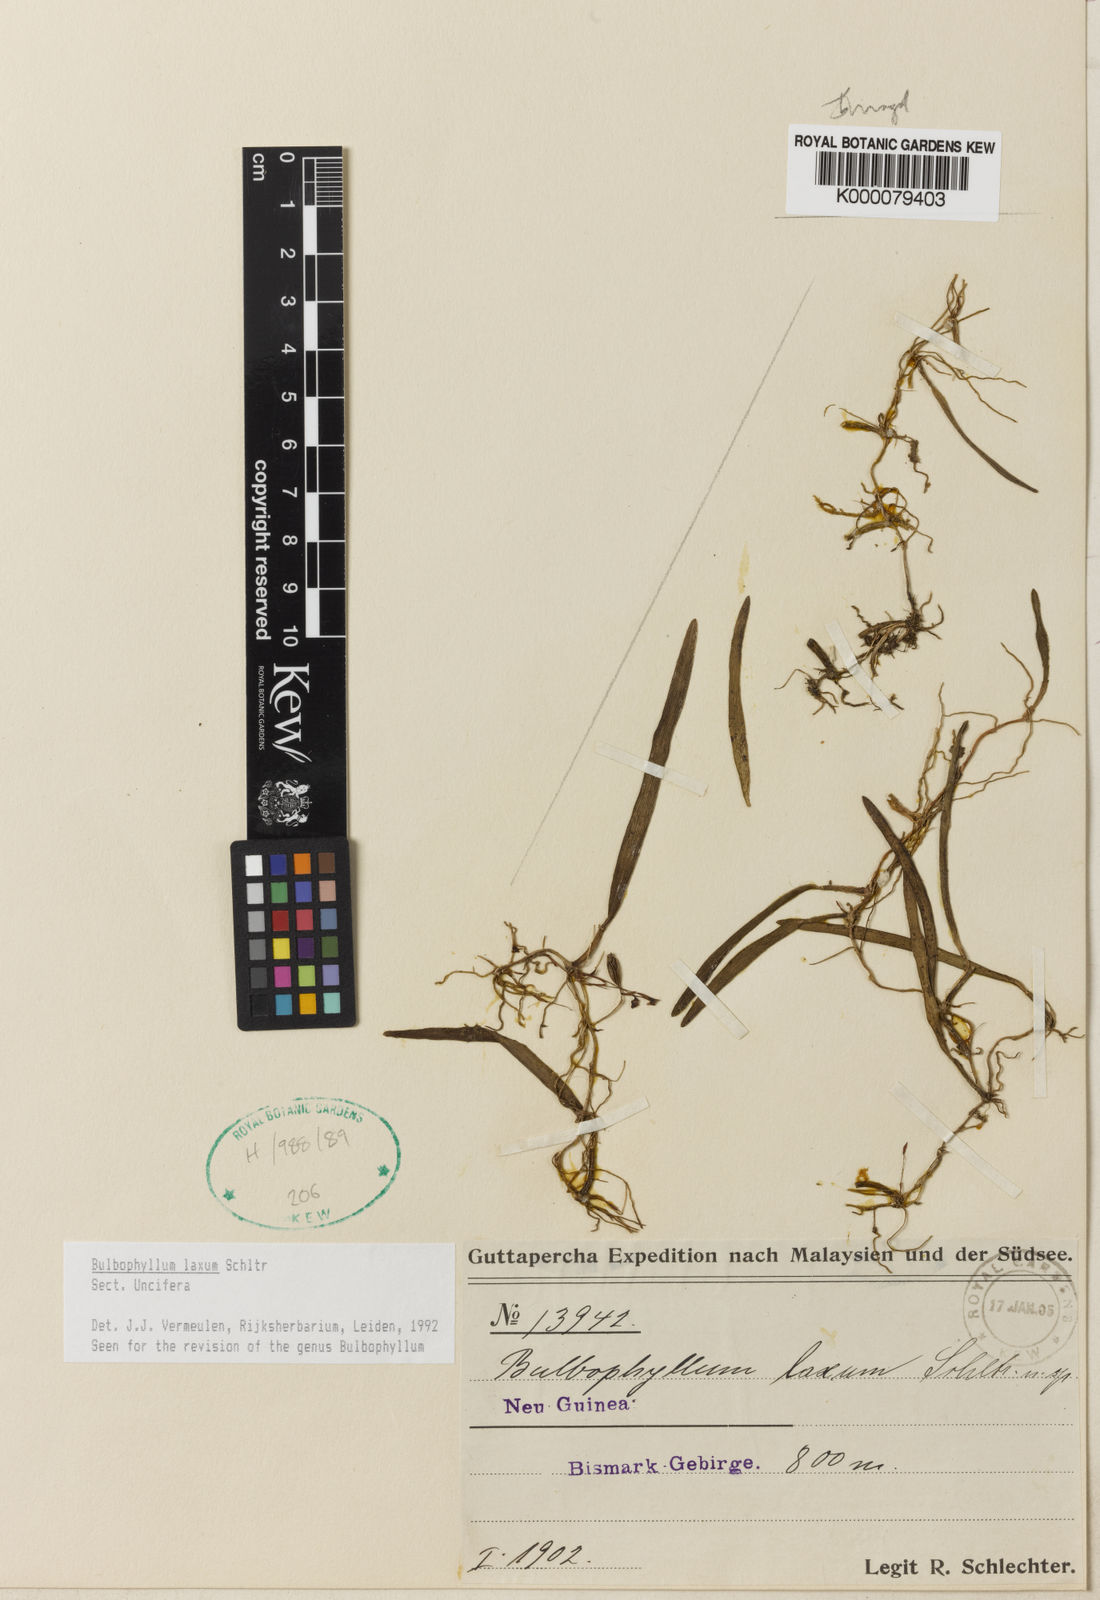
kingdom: Plantae
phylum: Tracheophyta
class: Liliopsida
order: Asparagales
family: Orchidaceae
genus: Bulbophyllum
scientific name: Bulbophyllum
